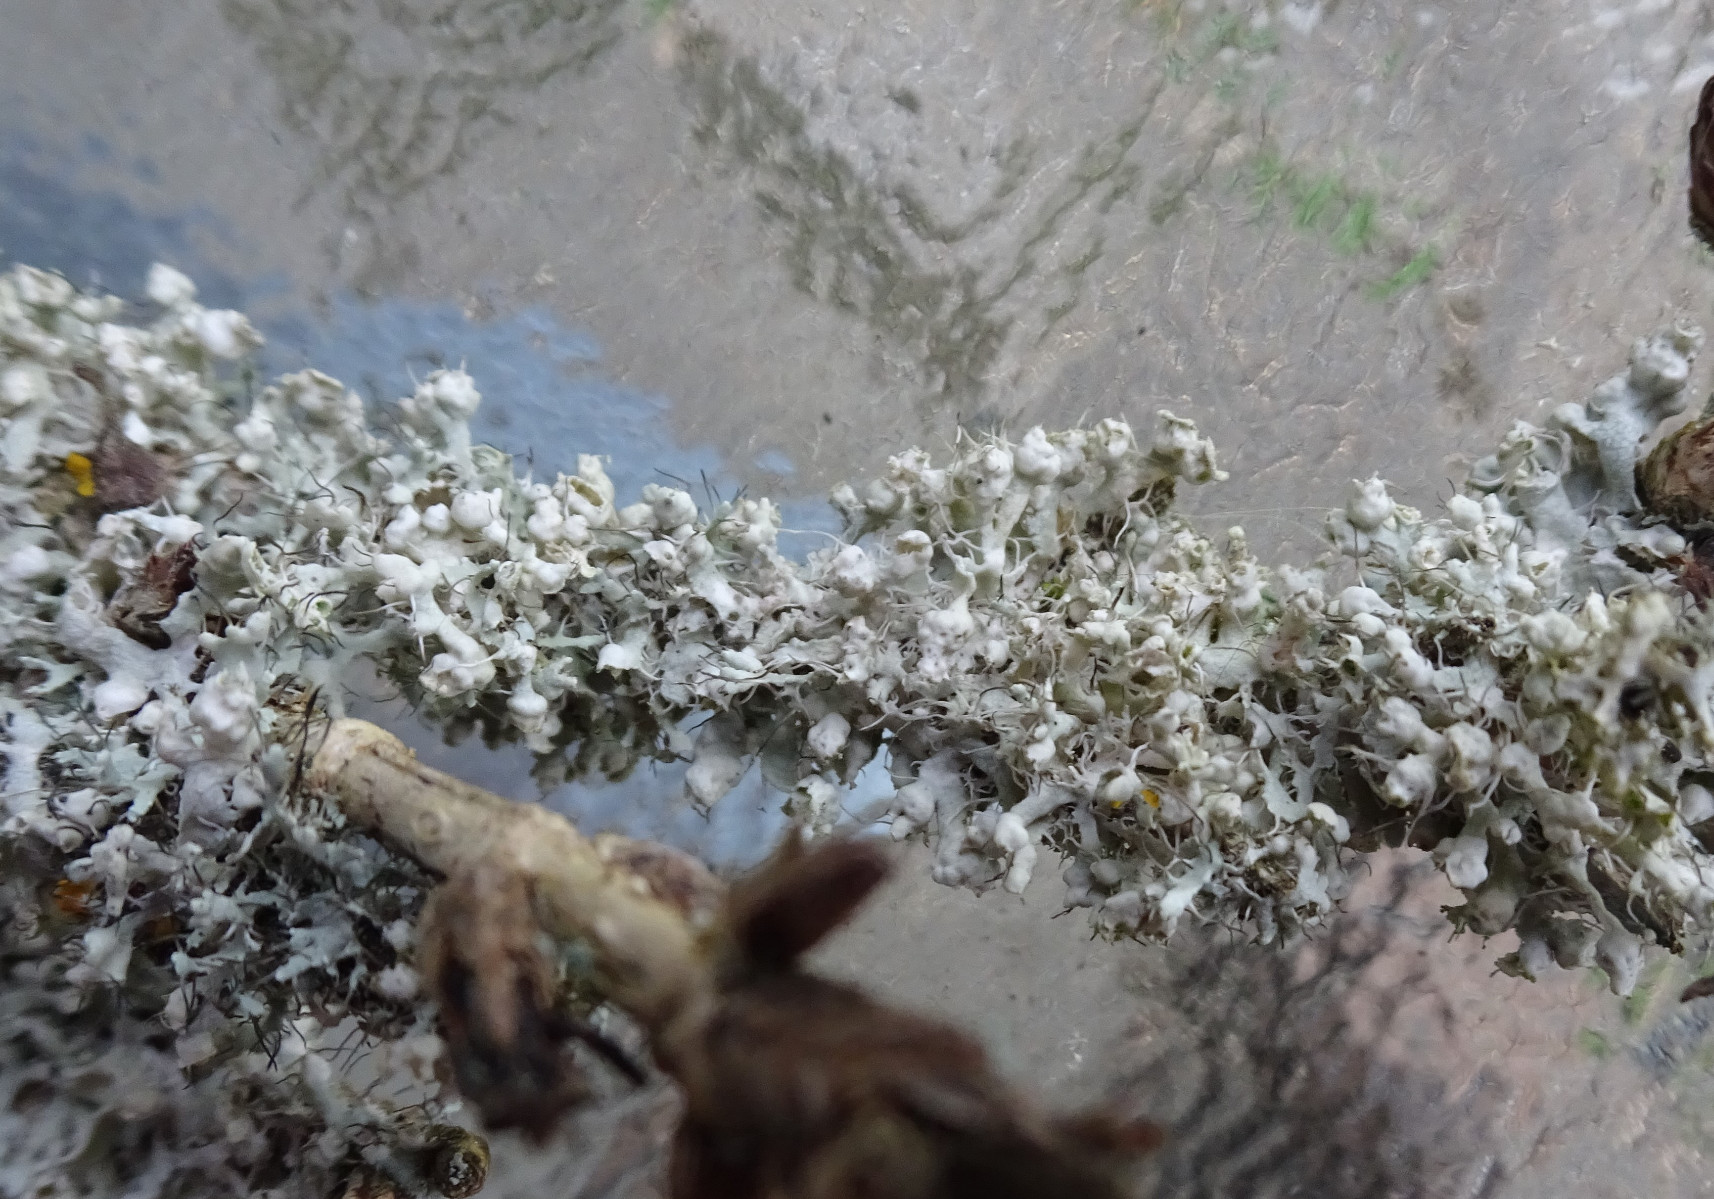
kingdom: Fungi
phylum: Ascomycota
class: Lecanoromycetes
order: Caliciales
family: Physciaceae
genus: Physcia
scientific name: Physcia adscendens
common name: hætte-rosetlav
